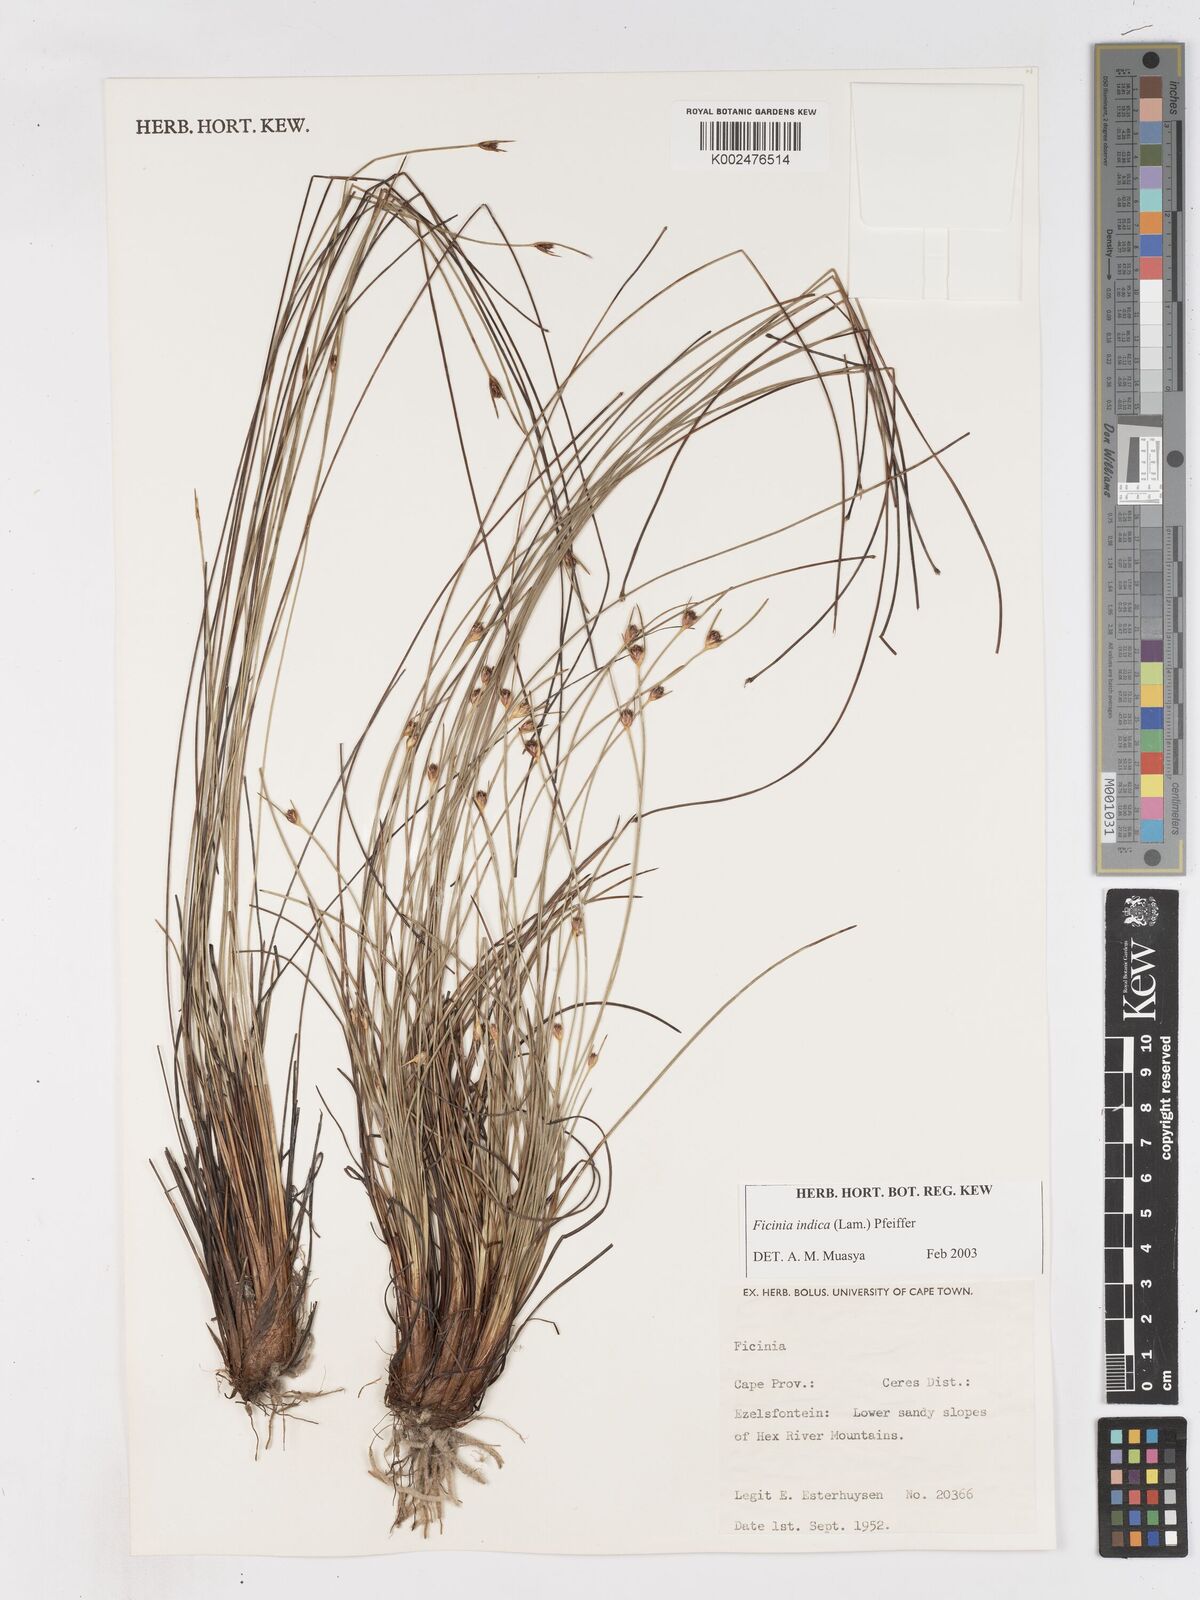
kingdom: Plantae
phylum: Tracheophyta
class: Liliopsida
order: Poales
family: Cyperaceae
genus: Ficinia
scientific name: Ficinia dunensis
